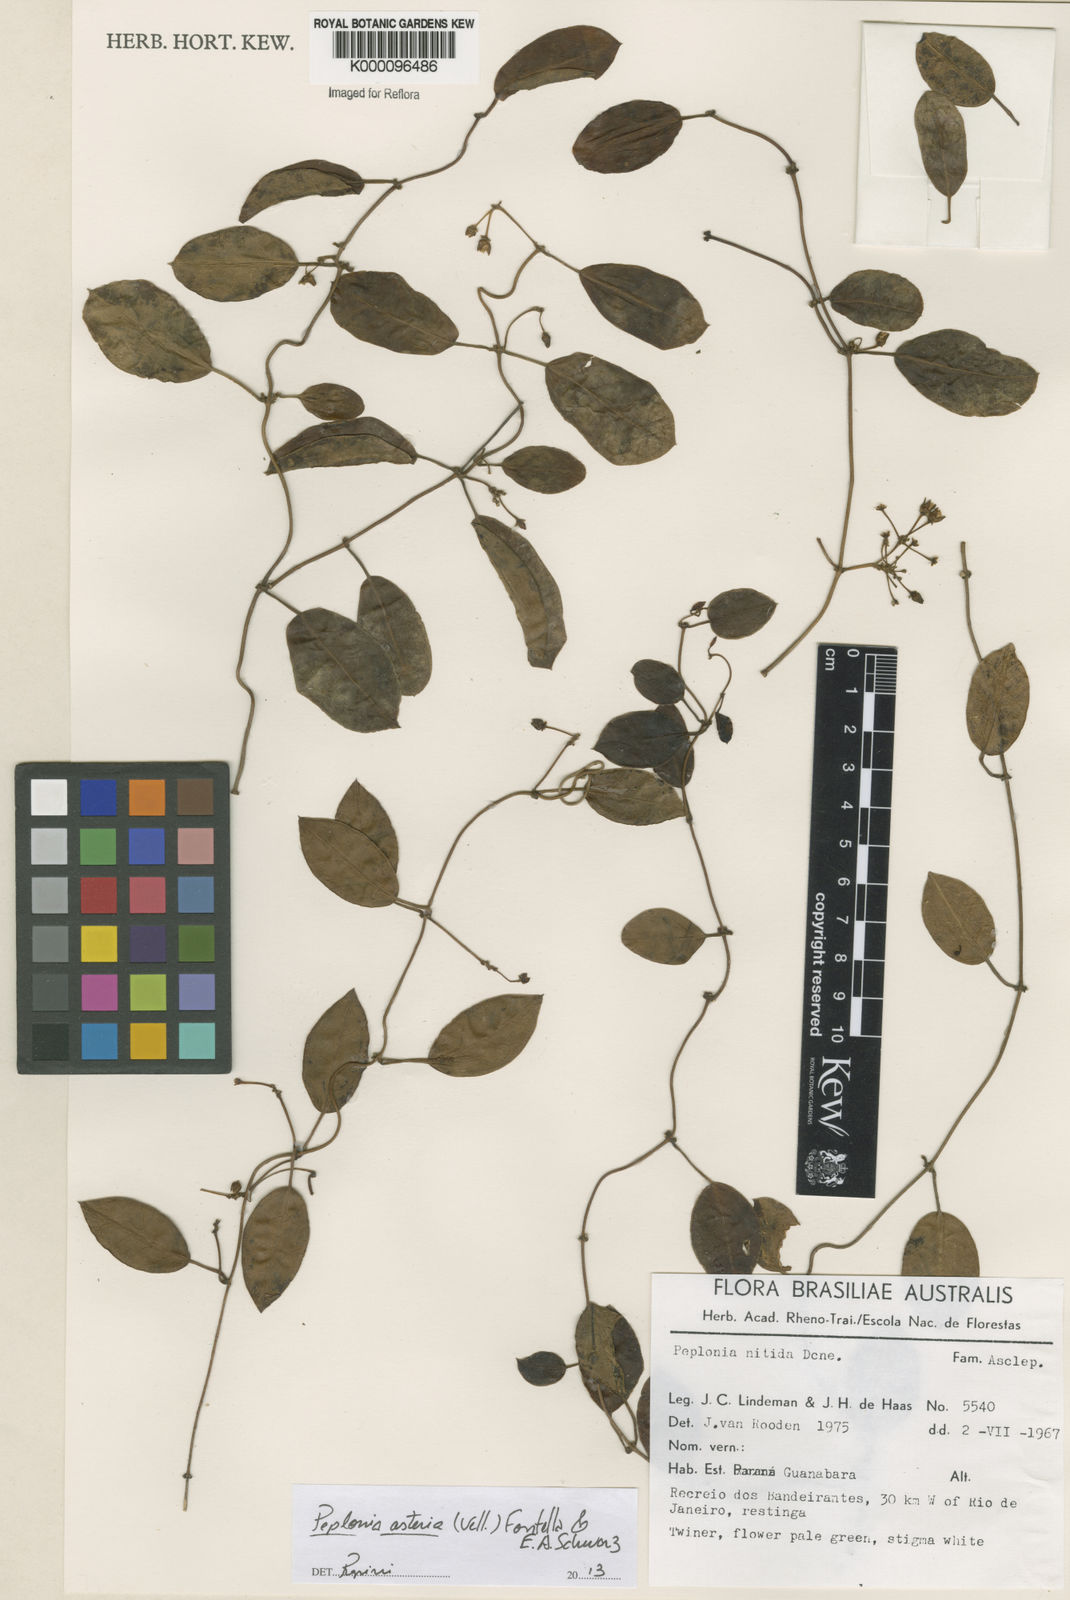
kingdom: Plantae
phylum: Tracheophyta
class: Magnoliopsida
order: Gentianales
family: Apocynaceae
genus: Peplonia
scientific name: Peplonia asteria
